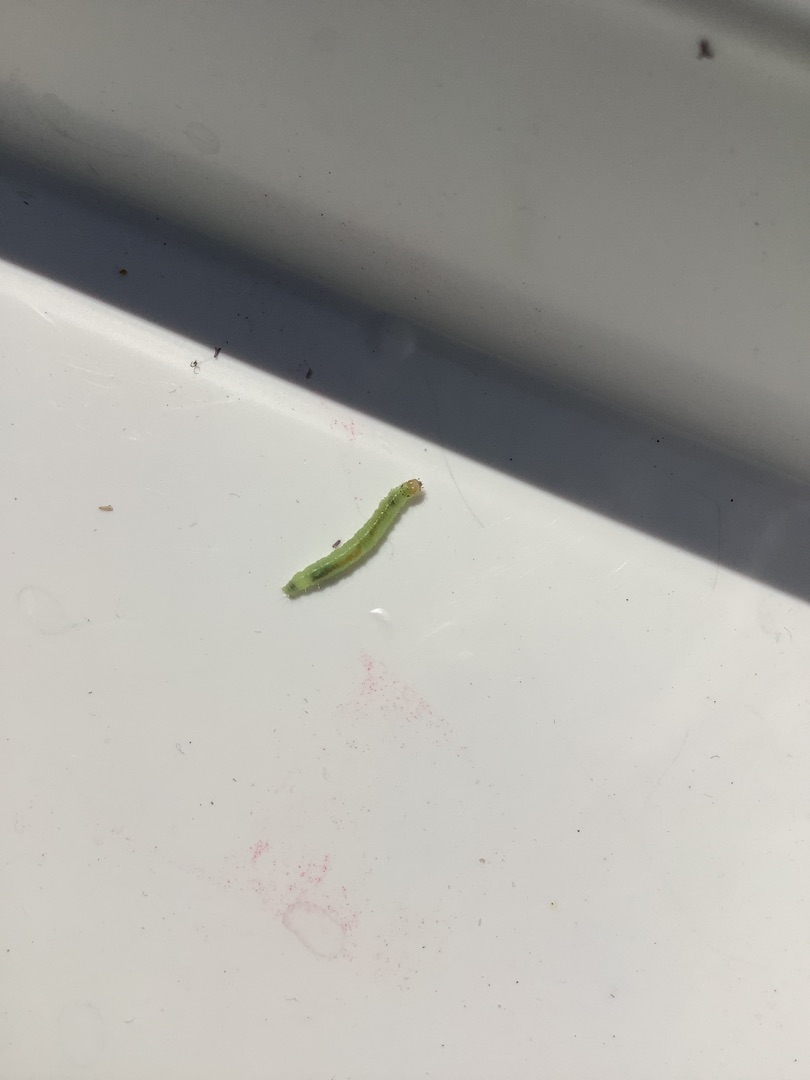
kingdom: Animalia
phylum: Arthropoda
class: Insecta
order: Lepidoptera
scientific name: Lepidoptera
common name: Sommerfugle
